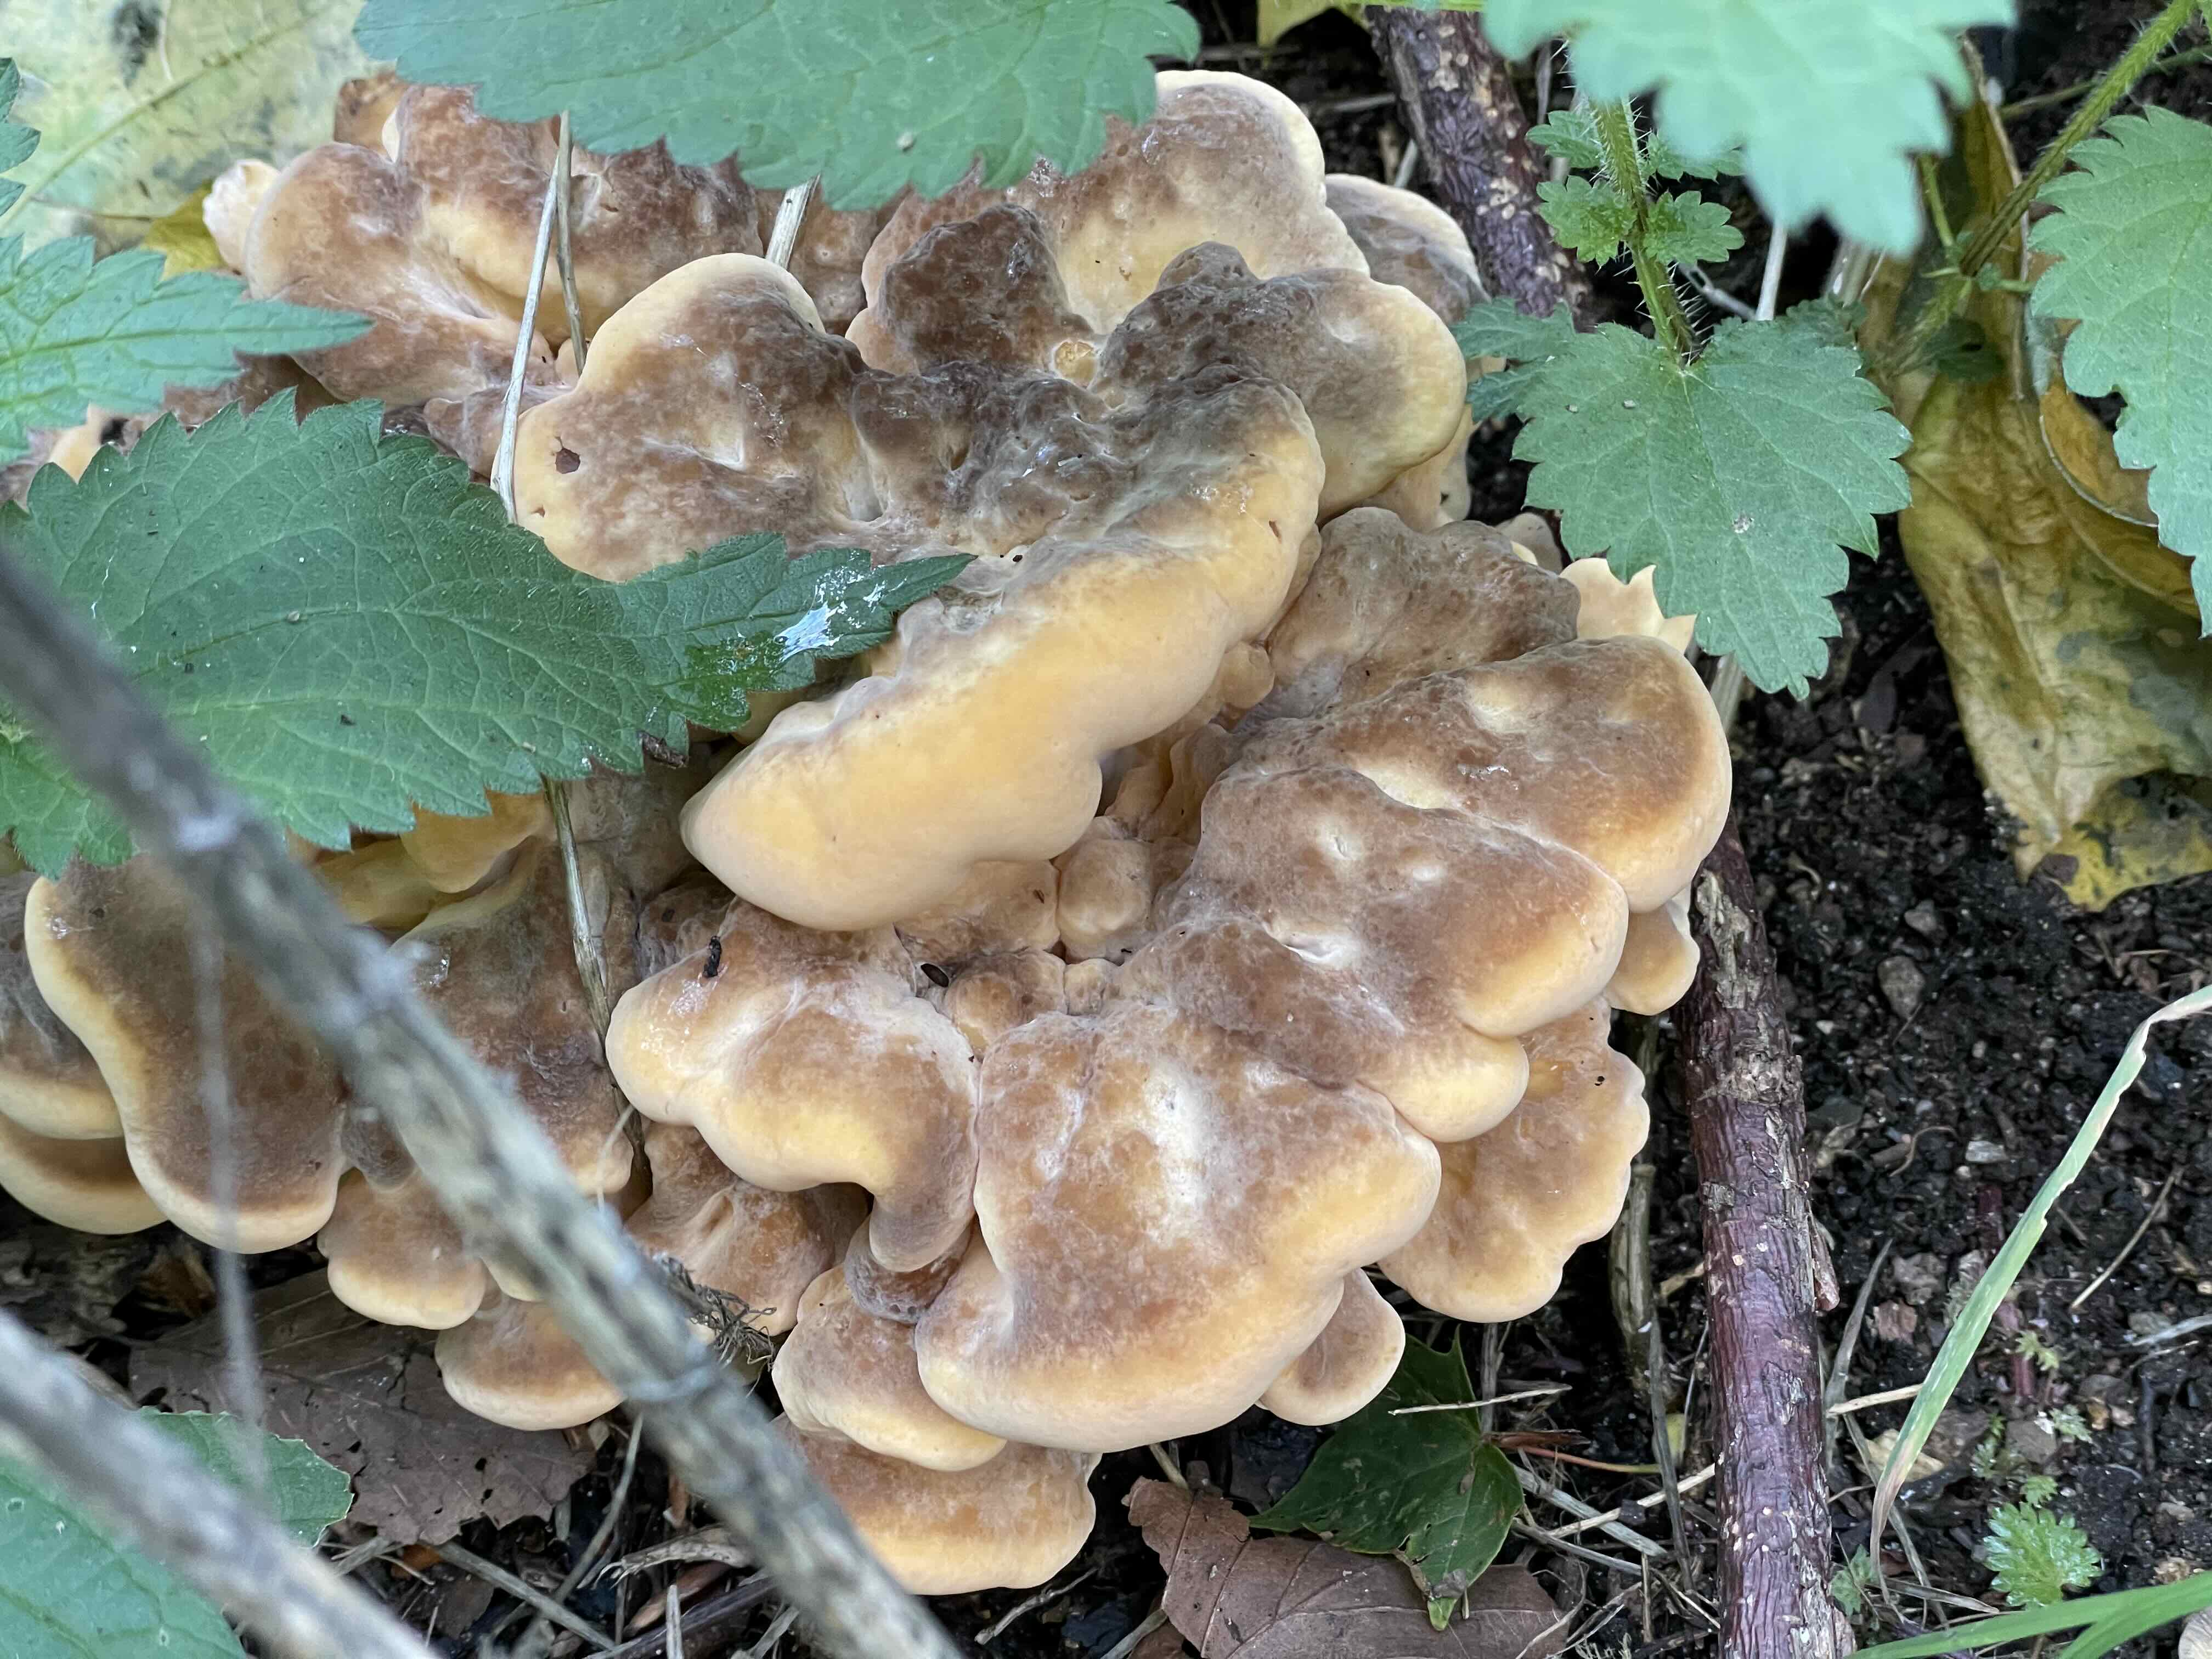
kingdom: Fungi
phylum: Basidiomycota
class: Agaricomycetes
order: Polyporales
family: Meripilaceae
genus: Meripilus
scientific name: Meripilus giganteus
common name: kæmpeporesvamp
